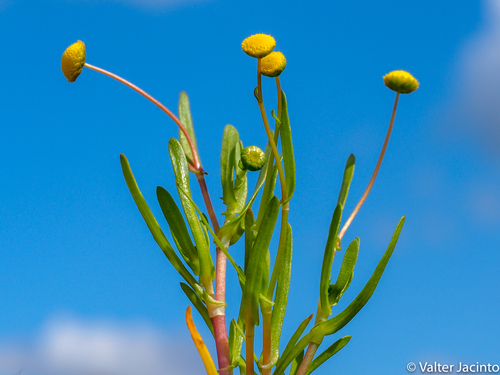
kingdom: Plantae
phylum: Tracheophyta
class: Magnoliopsida
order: Asterales
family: Asteraceae
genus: Cotula
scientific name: Cotula coronopifolia
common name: Buttonweed
